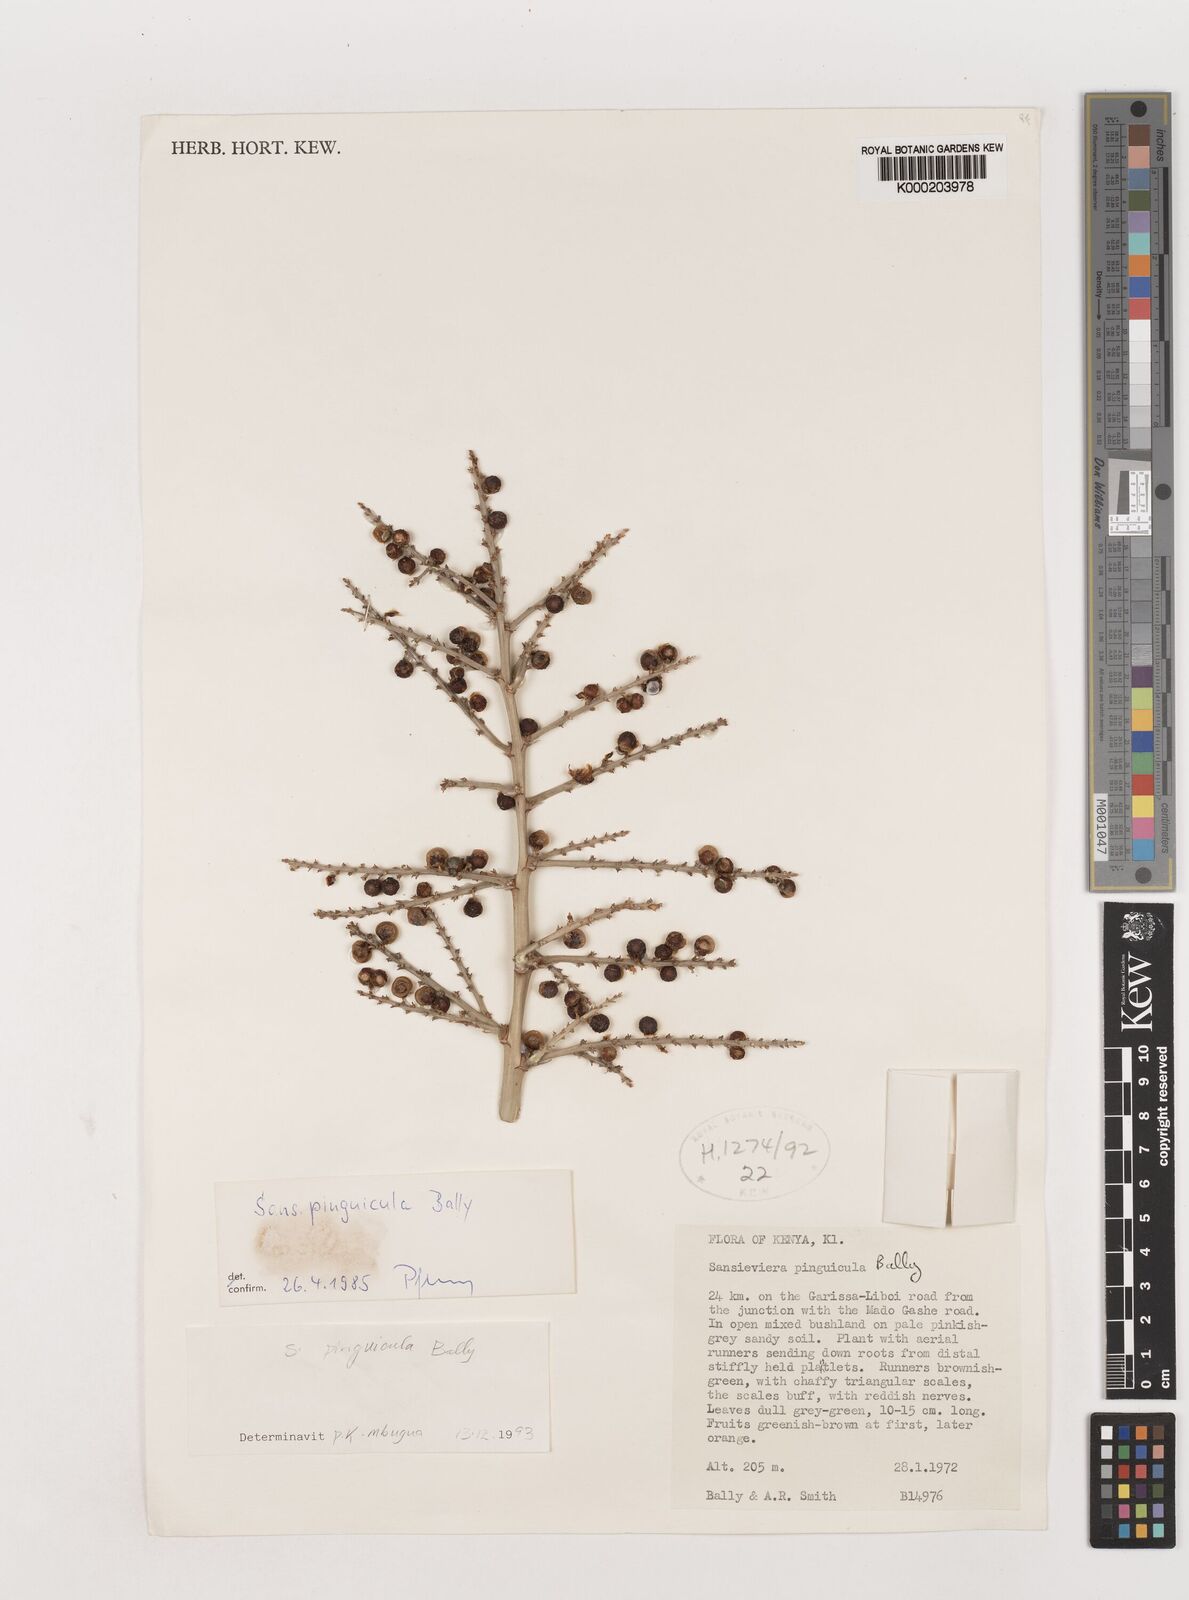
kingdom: Plantae
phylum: Tracheophyta
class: Liliopsida
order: Asparagales
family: Asparagaceae
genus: Dracaena
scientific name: Dracaena pinguicula
